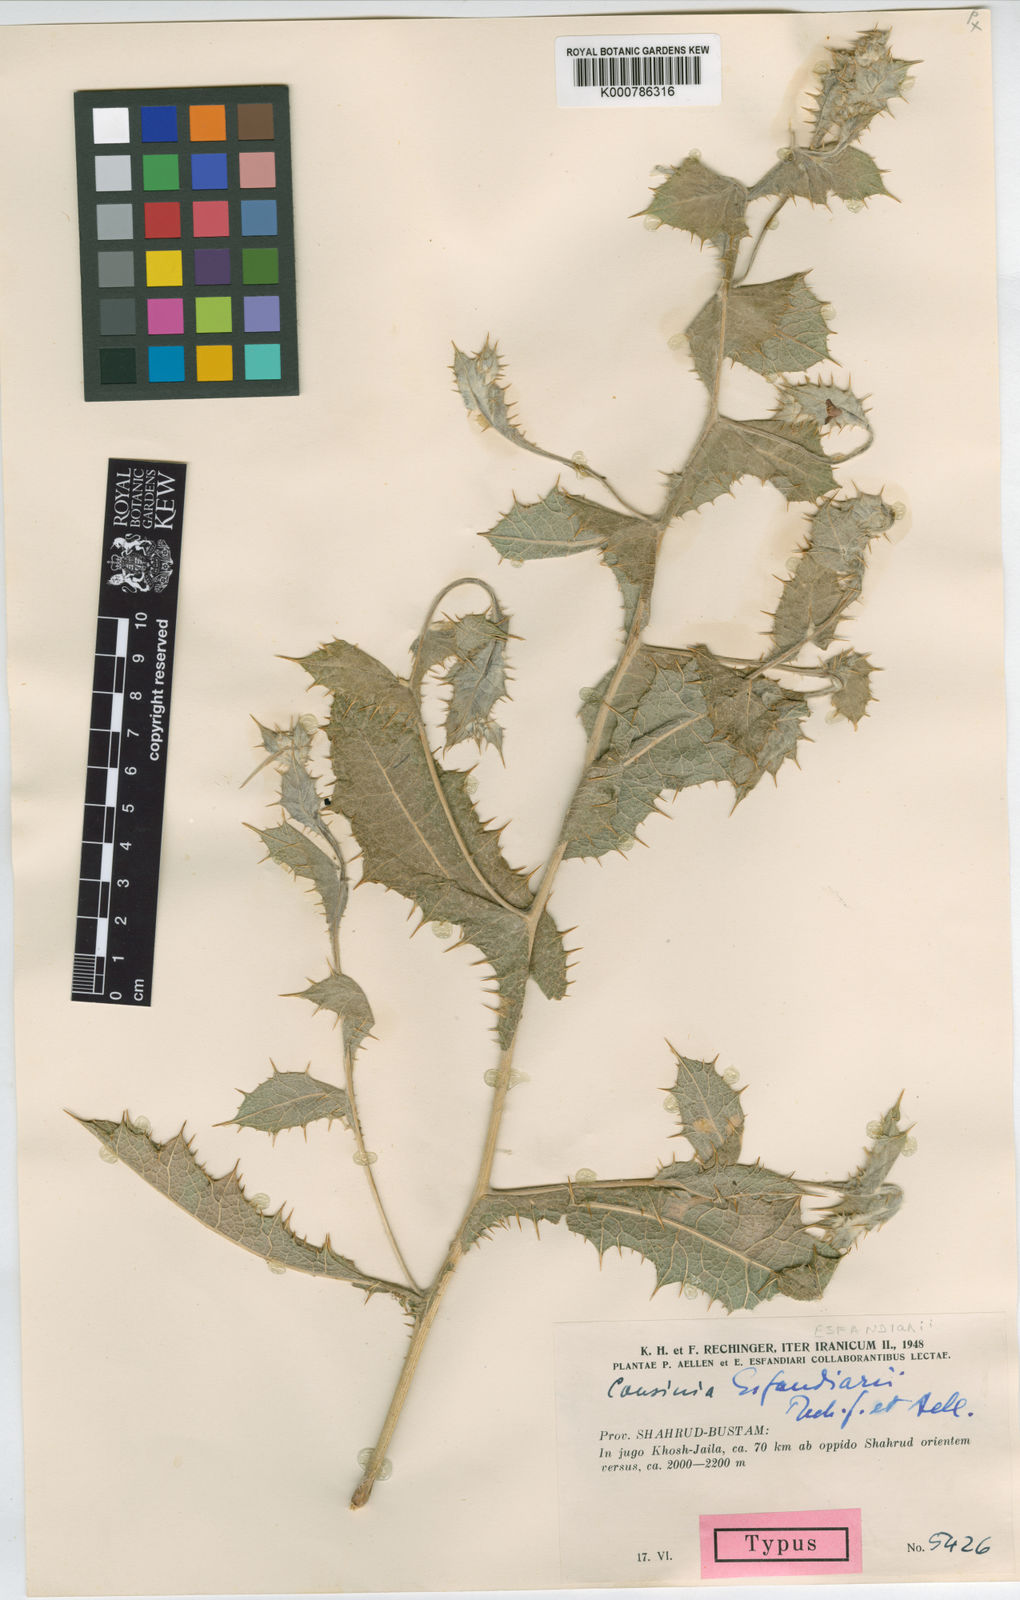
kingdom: Plantae
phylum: Tracheophyta
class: Magnoliopsida
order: Asterales
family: Asteraceae
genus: Cousinia
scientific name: Cousinia esfandiarii
